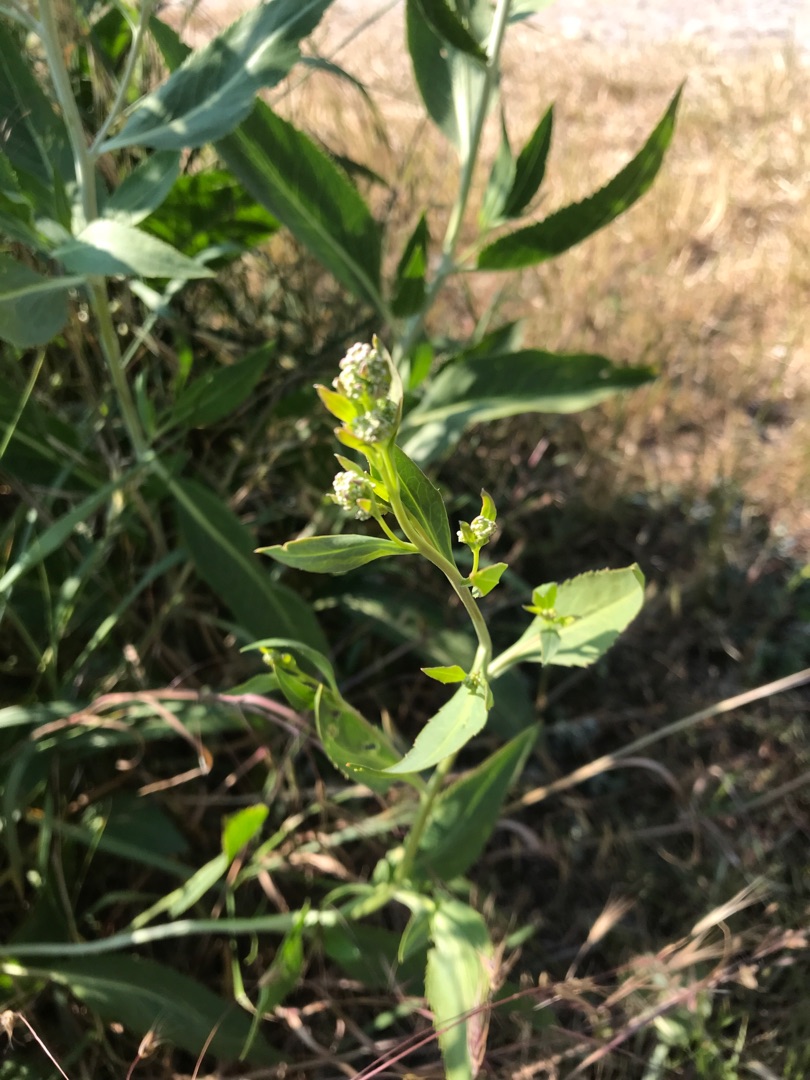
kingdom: Plantae
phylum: Tracheophyta
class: Magnoliopsida
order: Brassicales
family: Brassicaceae
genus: Lepidium
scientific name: Lepidium latifolium
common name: Strand-karse
